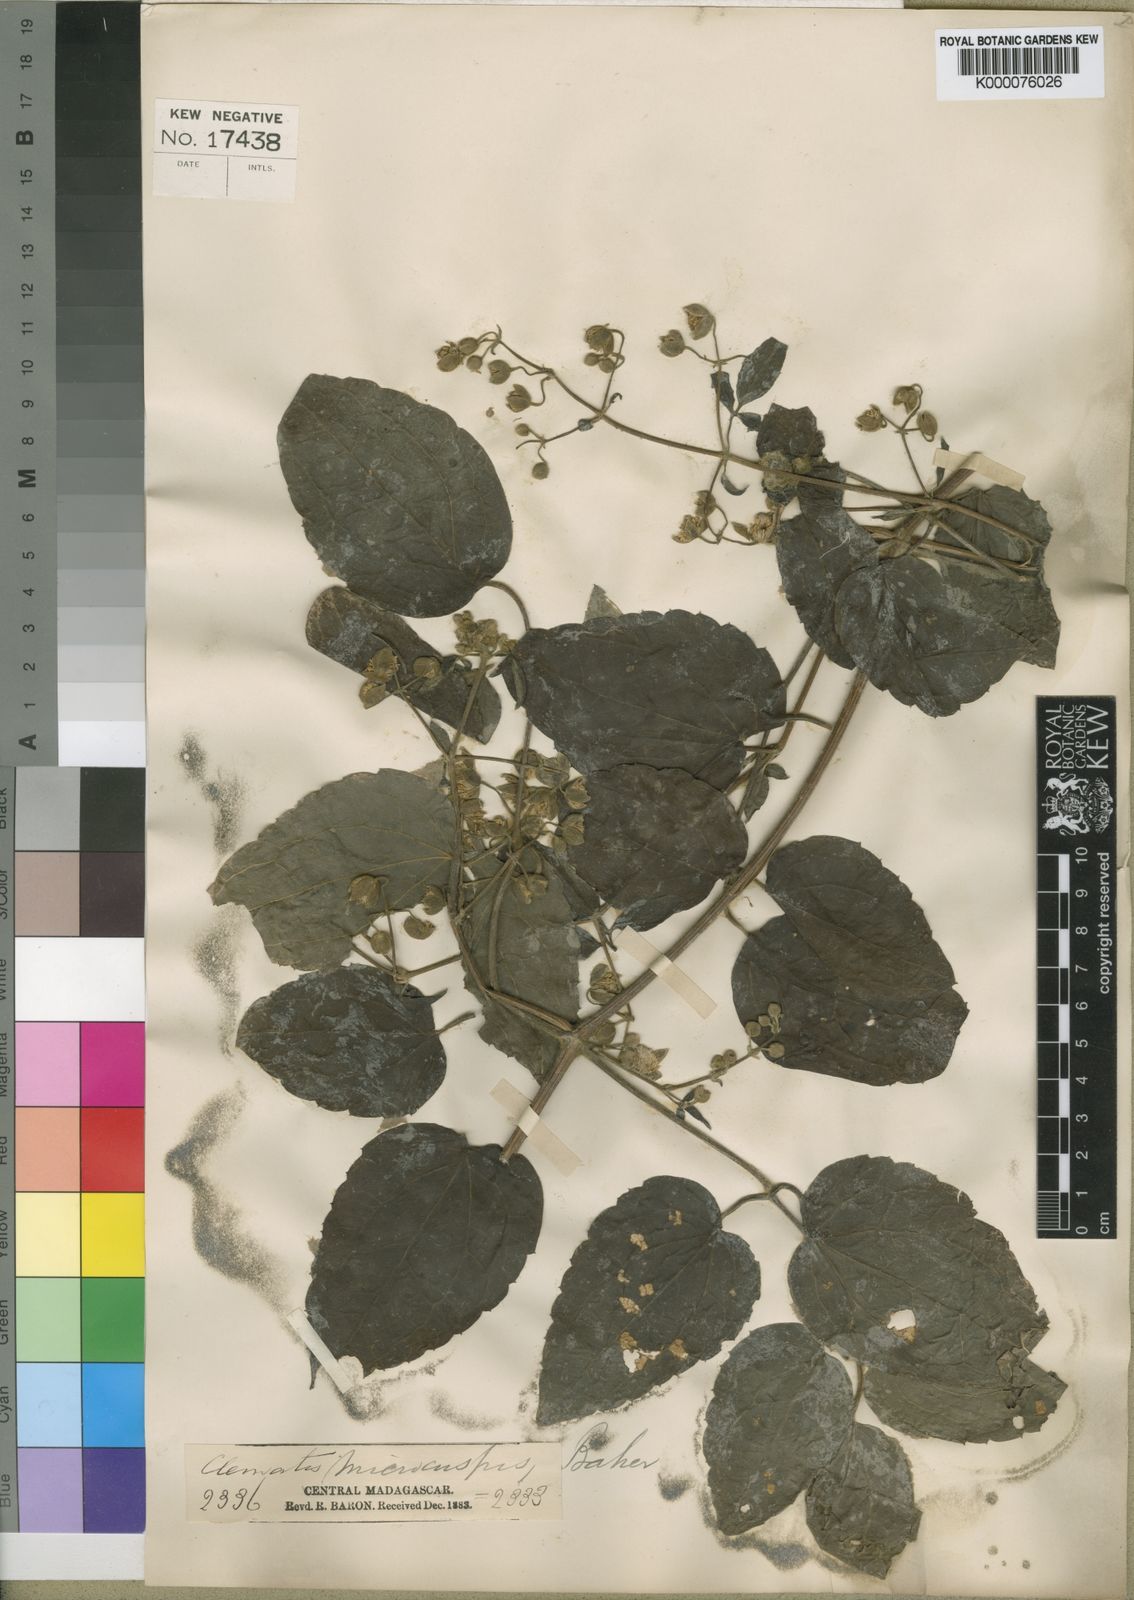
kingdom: Plantae
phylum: Tracheophyta
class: Magnoliopsida
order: Ranunculales
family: Ranunculaceae
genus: Clematis
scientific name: Clematis orientalis
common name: Oriental virgin's-bower
